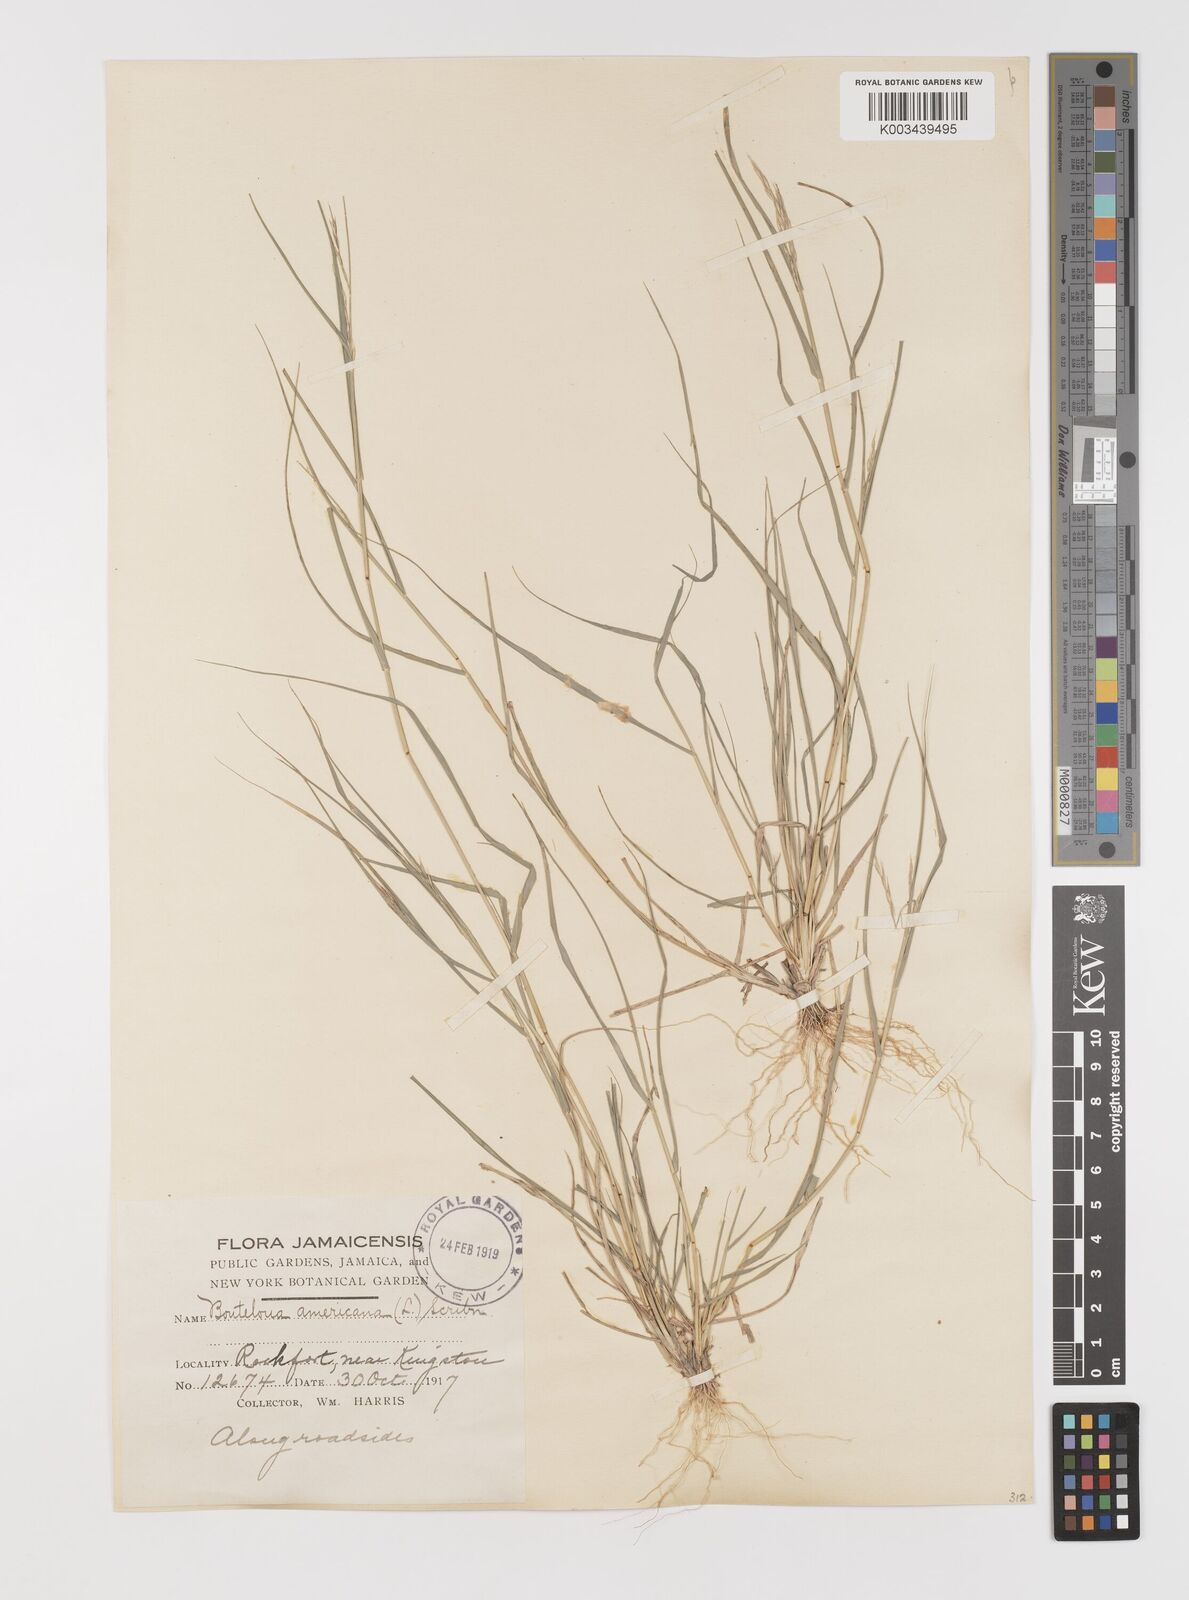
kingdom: Plantae
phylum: Tracheophyta
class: Liliopsida
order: Poales
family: Poaceae
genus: Bouteloua
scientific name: Bouteloua americana
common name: Mule grass
